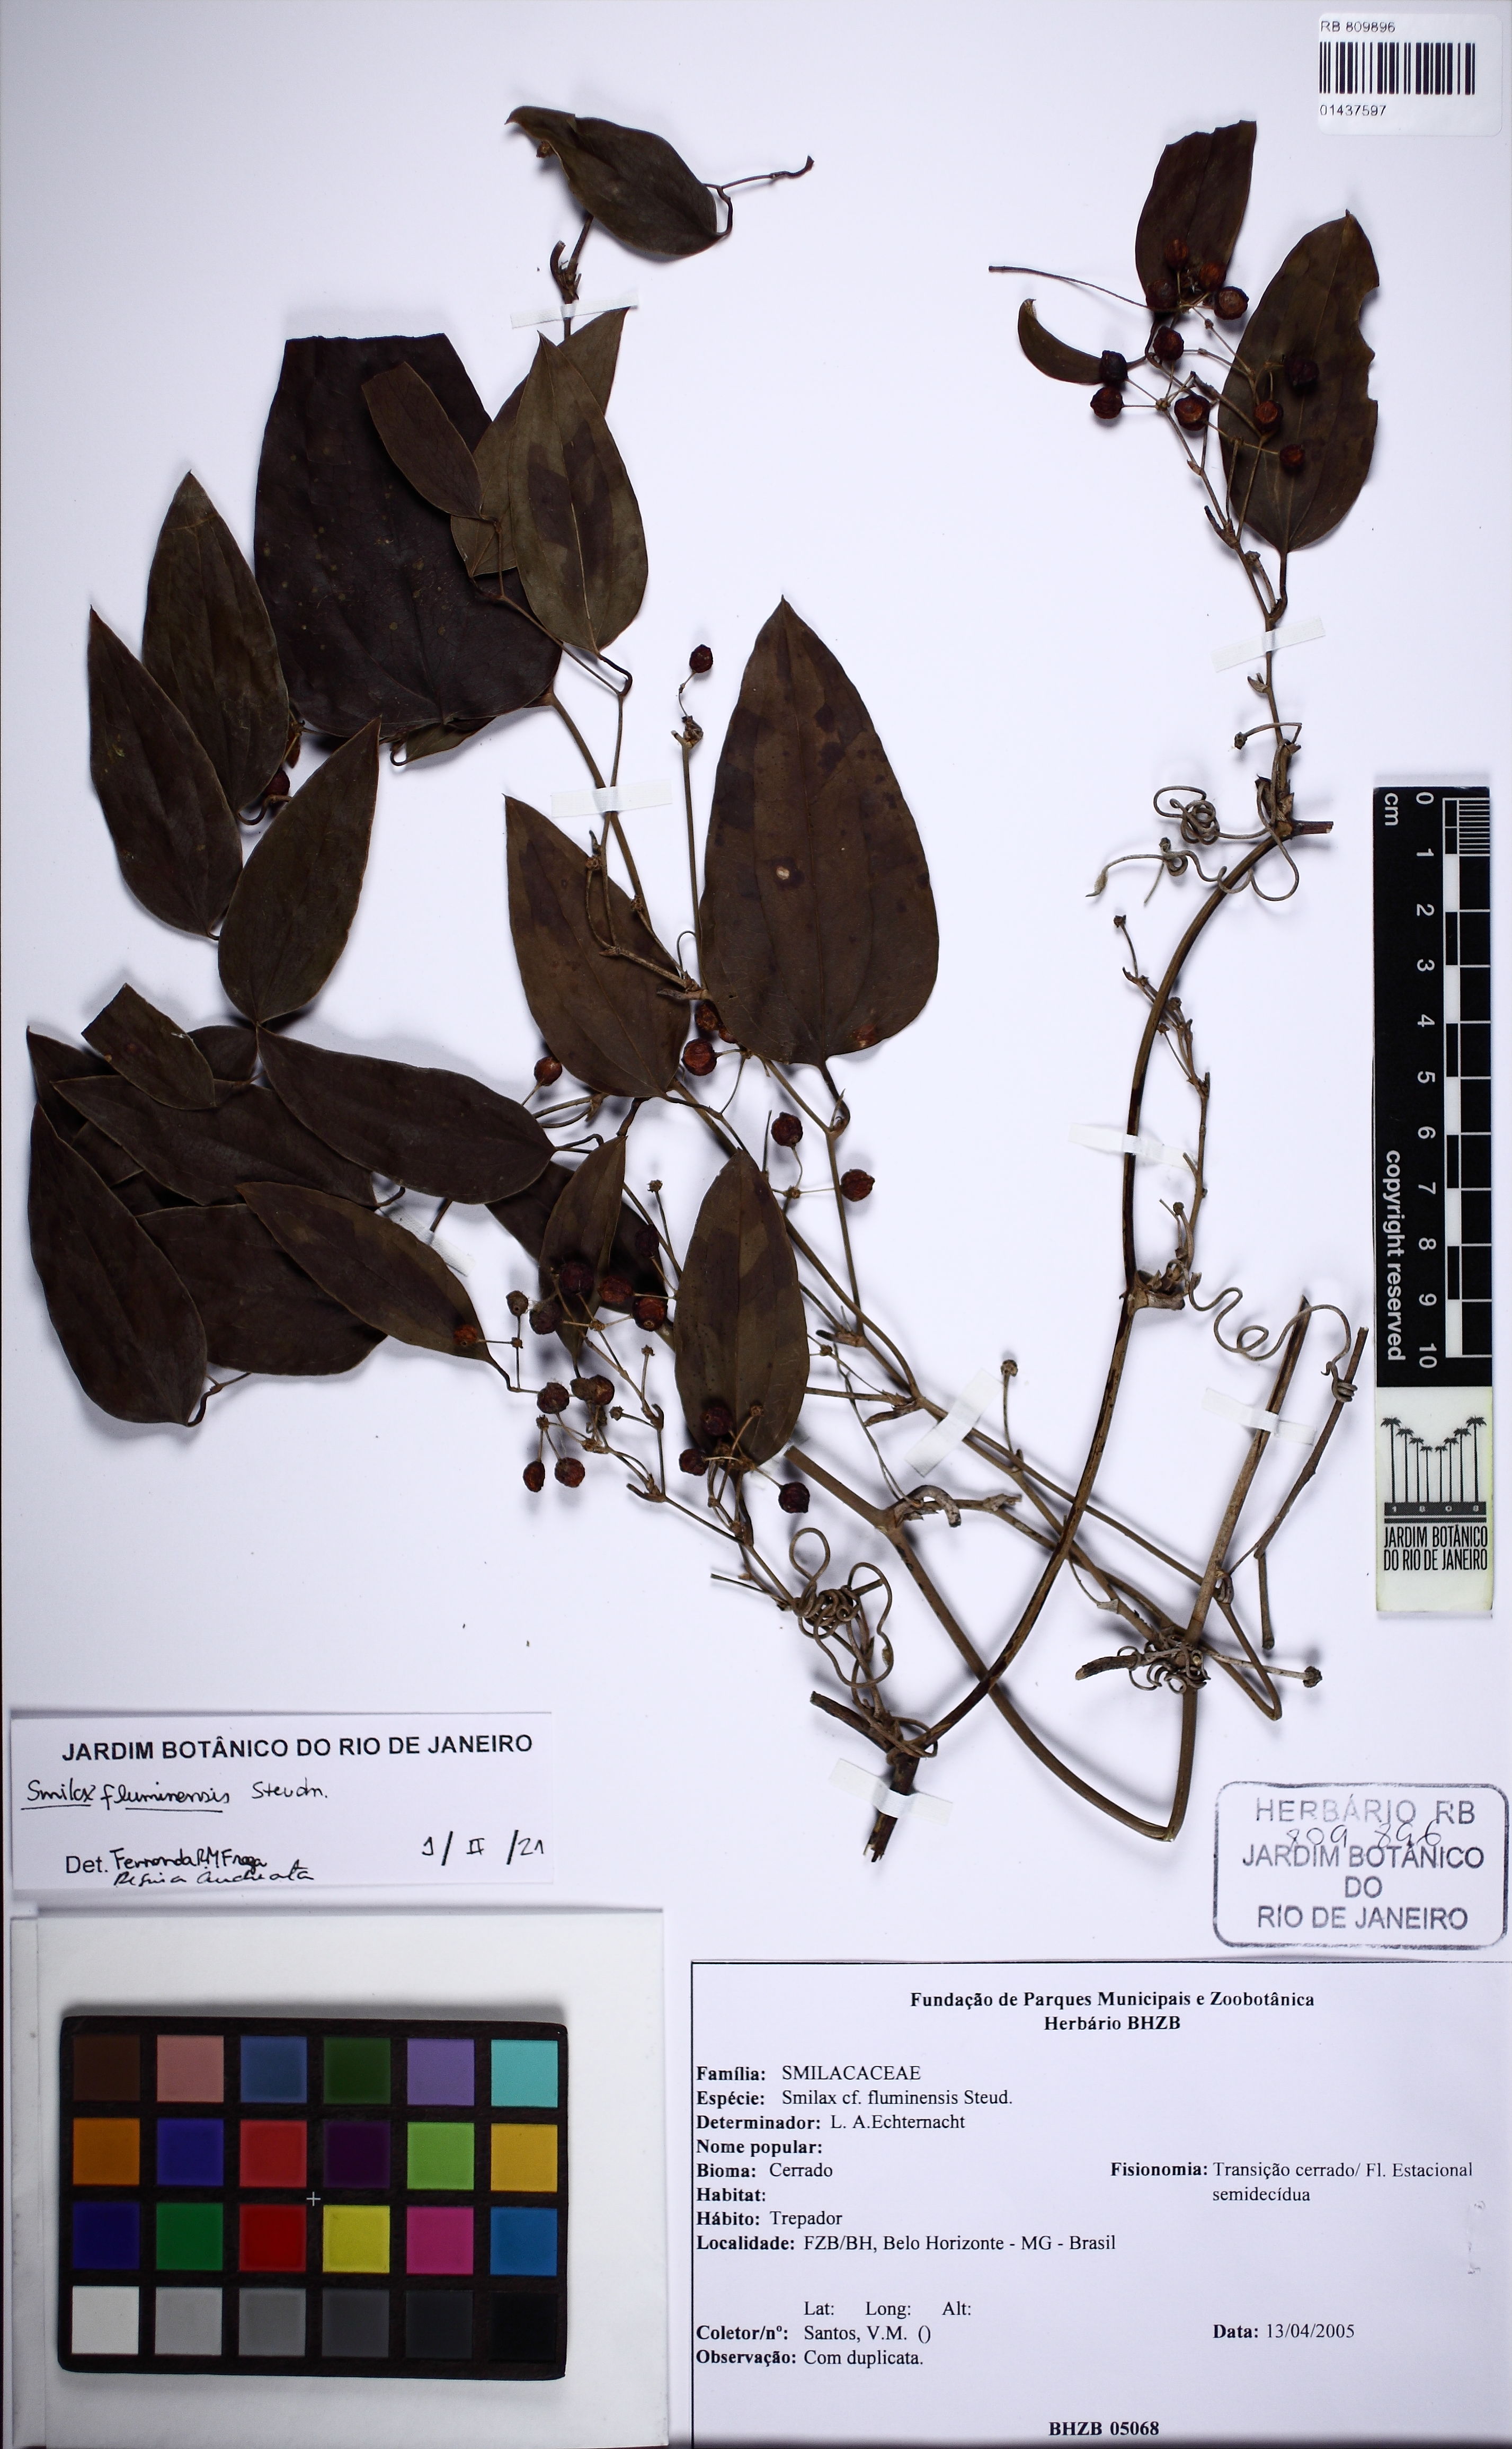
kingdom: Plantae
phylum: Tracheophyta
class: Liliopsida
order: Liliales
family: Smilacaceae
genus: Smilax
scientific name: Smilax fluminensis
